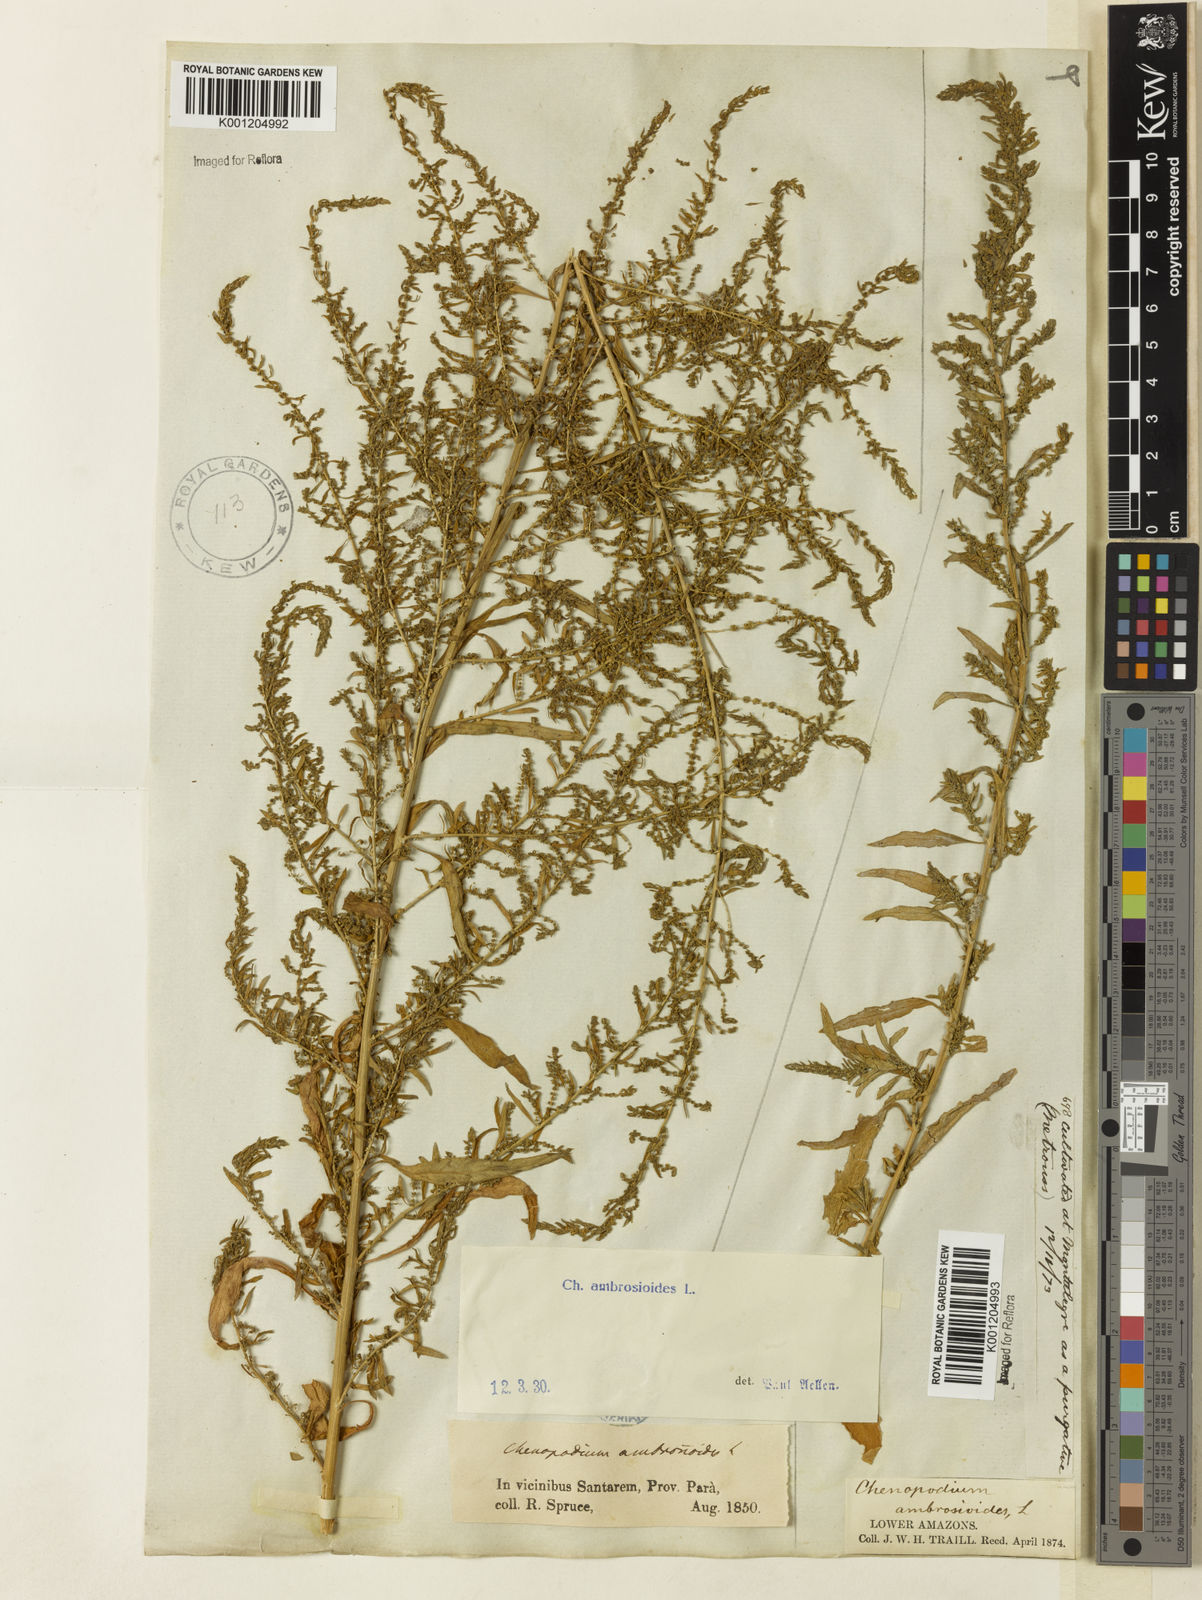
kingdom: Plantae
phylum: Tracheophyta
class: Magnoliopsida
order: Caryophyllales
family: Amaranthaceae
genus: Dysphania
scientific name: Dysphania ambrosioides
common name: Wormseed
